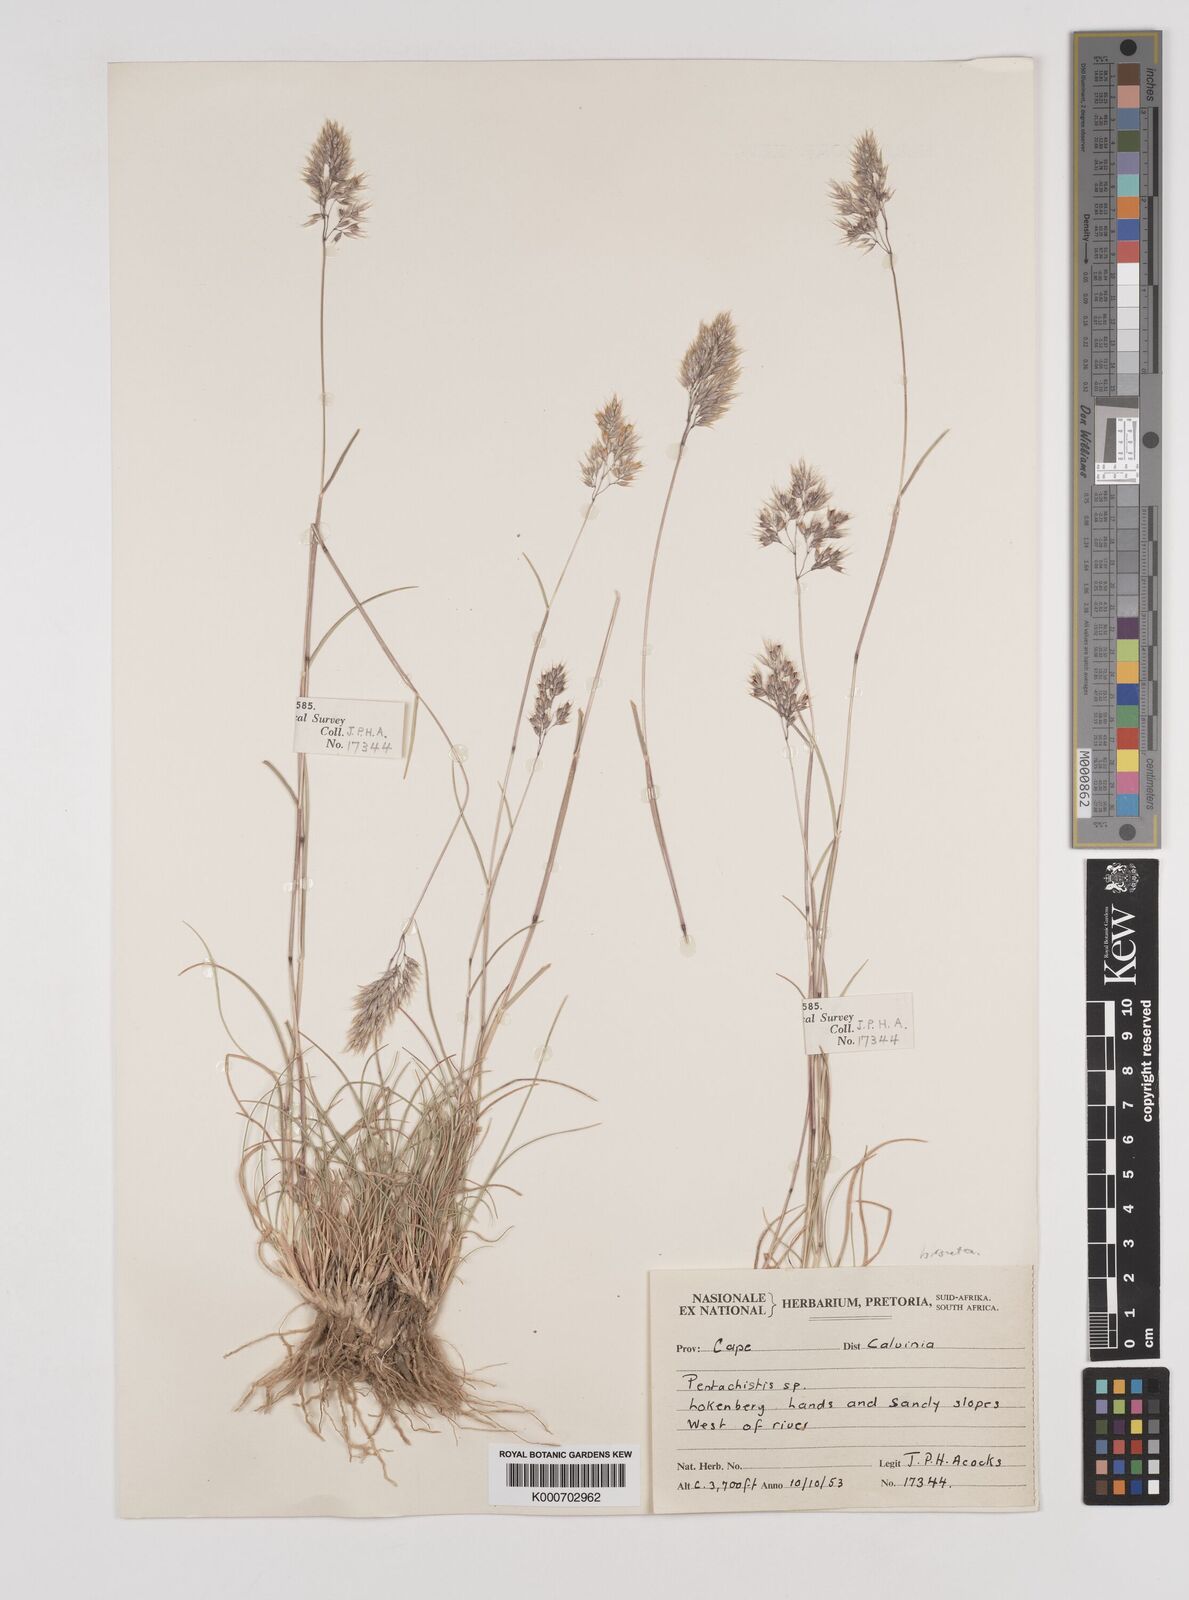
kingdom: Plantae
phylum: Tracheophyta
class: Liliopsida
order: Poales
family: Poaceae
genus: Pentameris
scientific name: Pentameris rupestris
